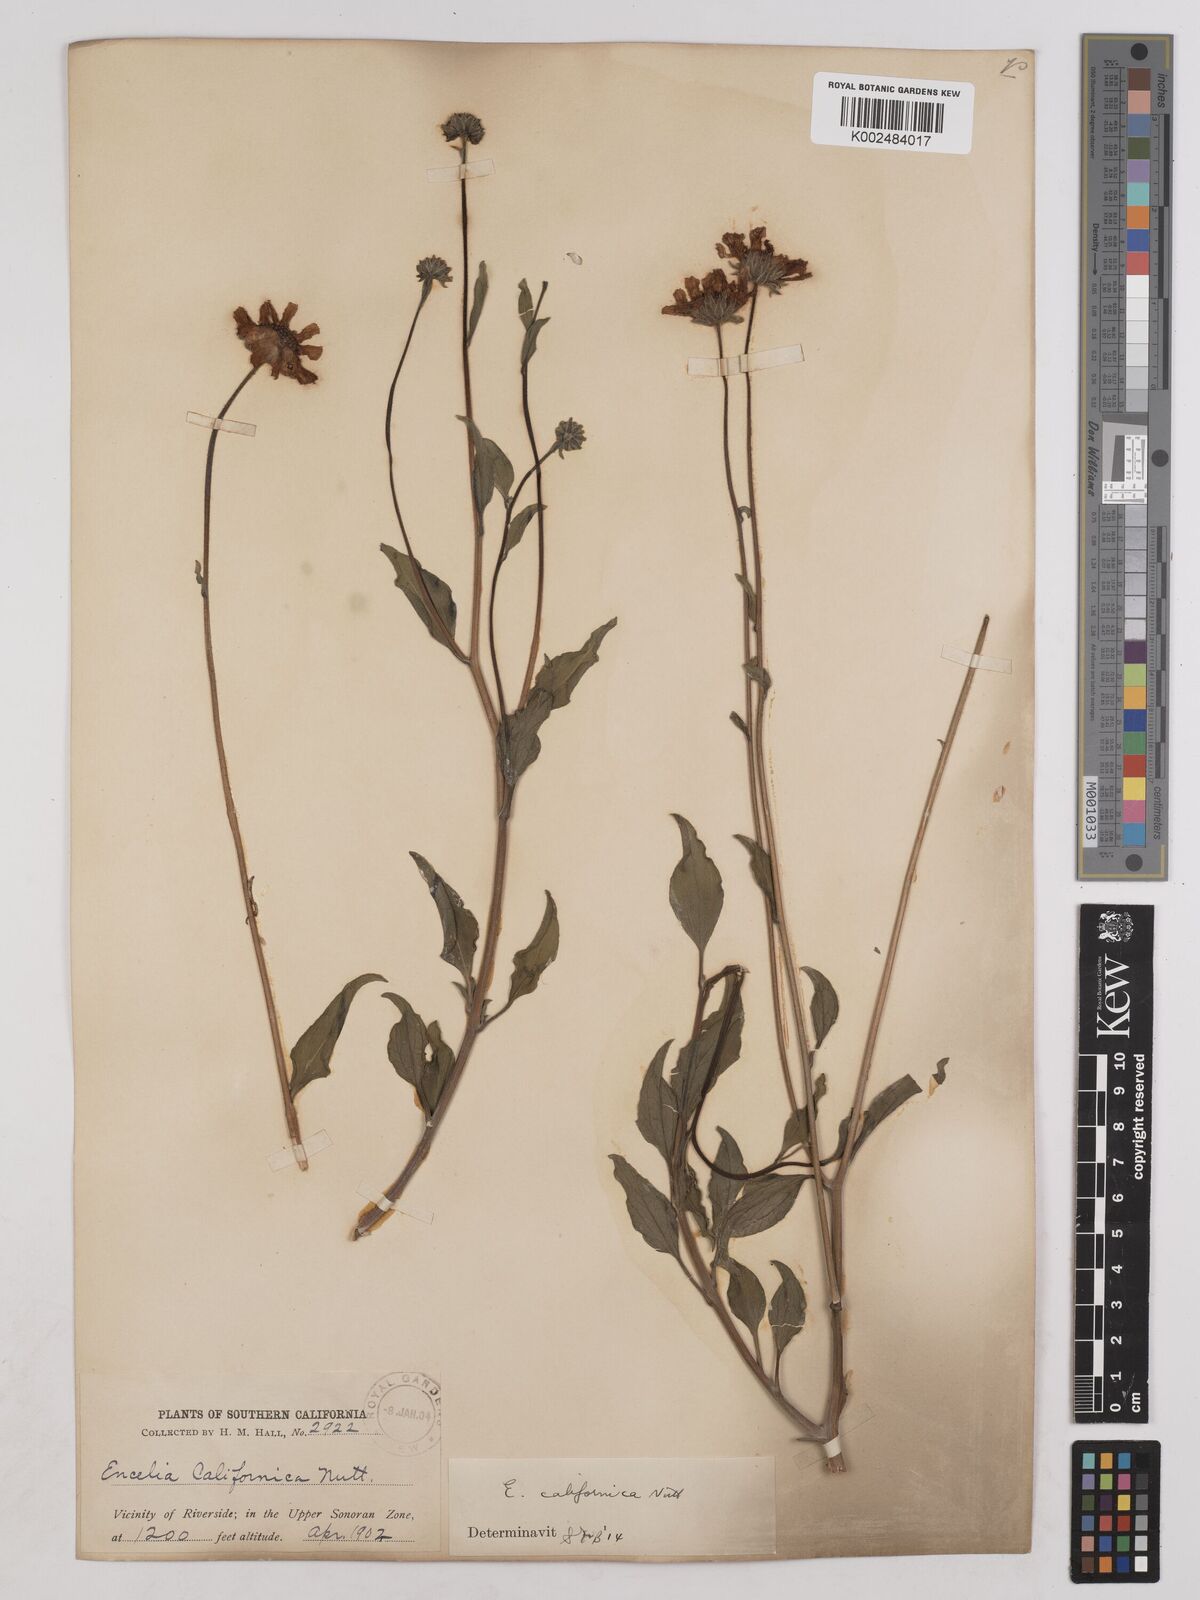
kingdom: Plantae
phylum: Tracheophyta
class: Magnoliopsida
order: Asterales
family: Asteraceae
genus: Encelia
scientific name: Encelia californica
